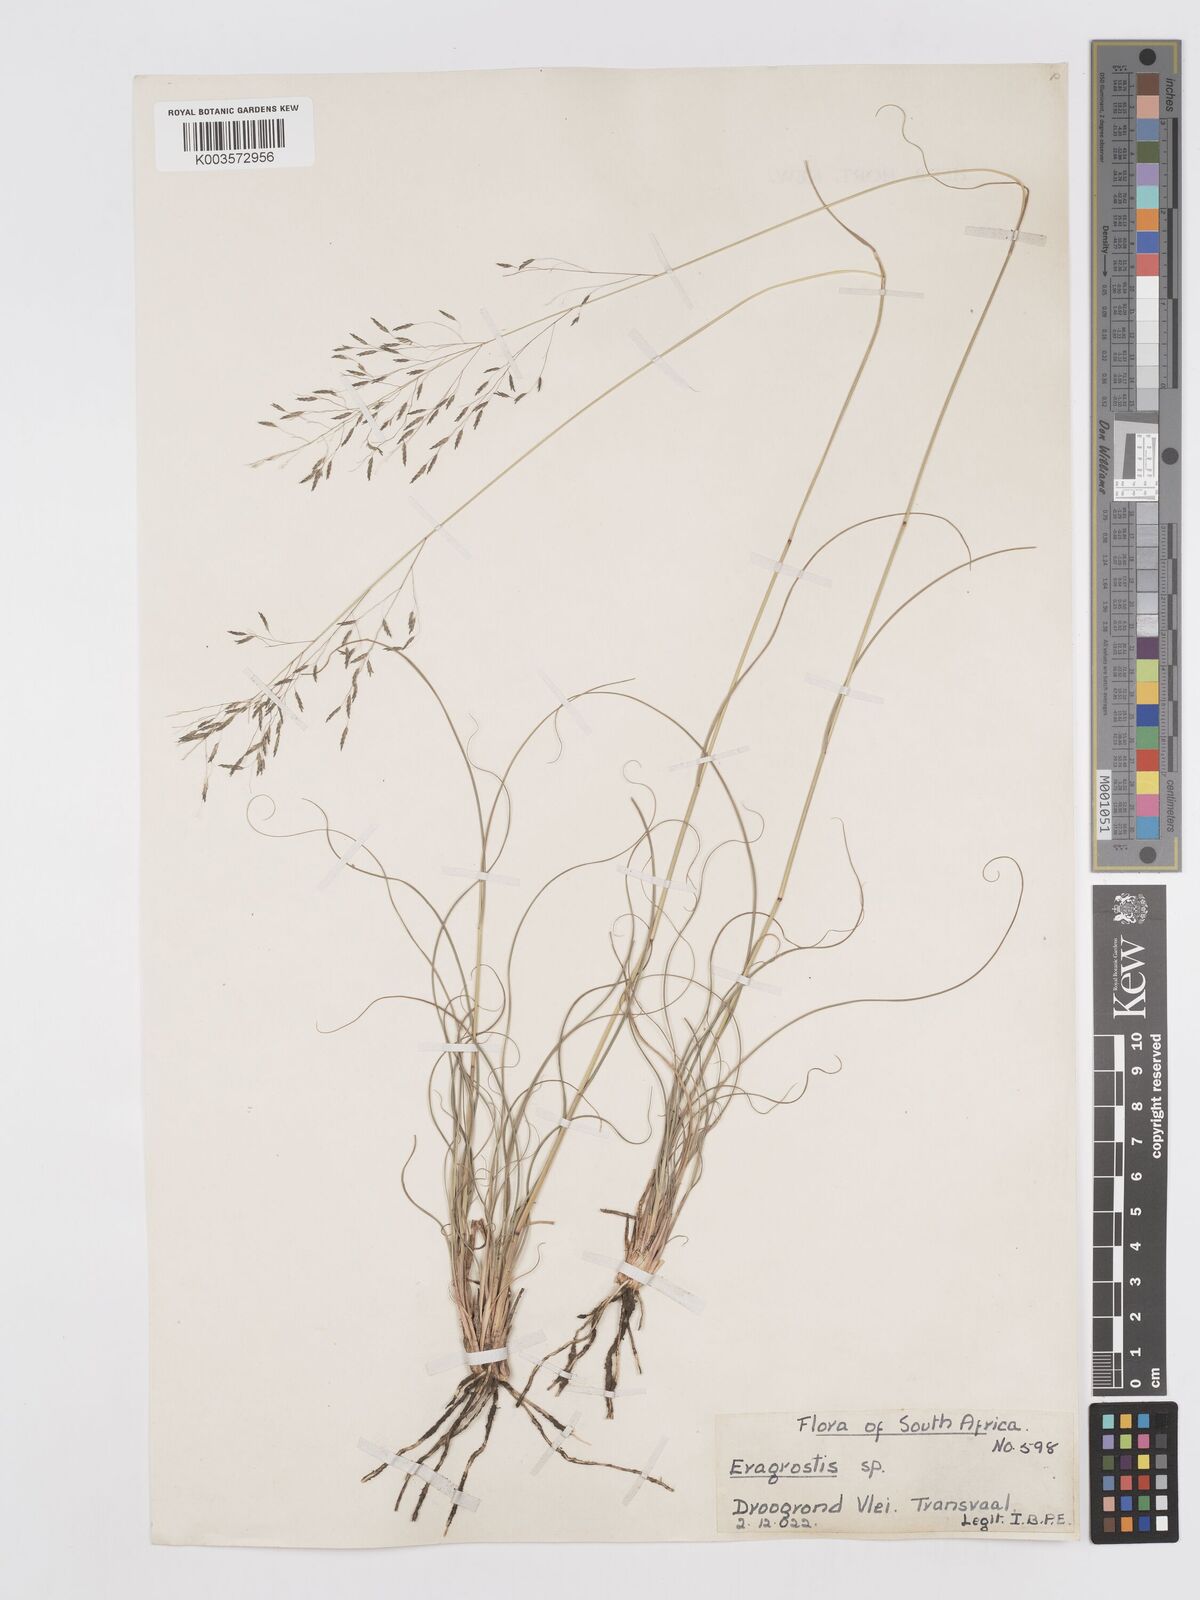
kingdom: Plantae
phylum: Tracheophyta
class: Liliopsida
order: Poales
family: Poaceae
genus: Eragrostis
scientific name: Eragrostis curvula
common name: African love-grass
